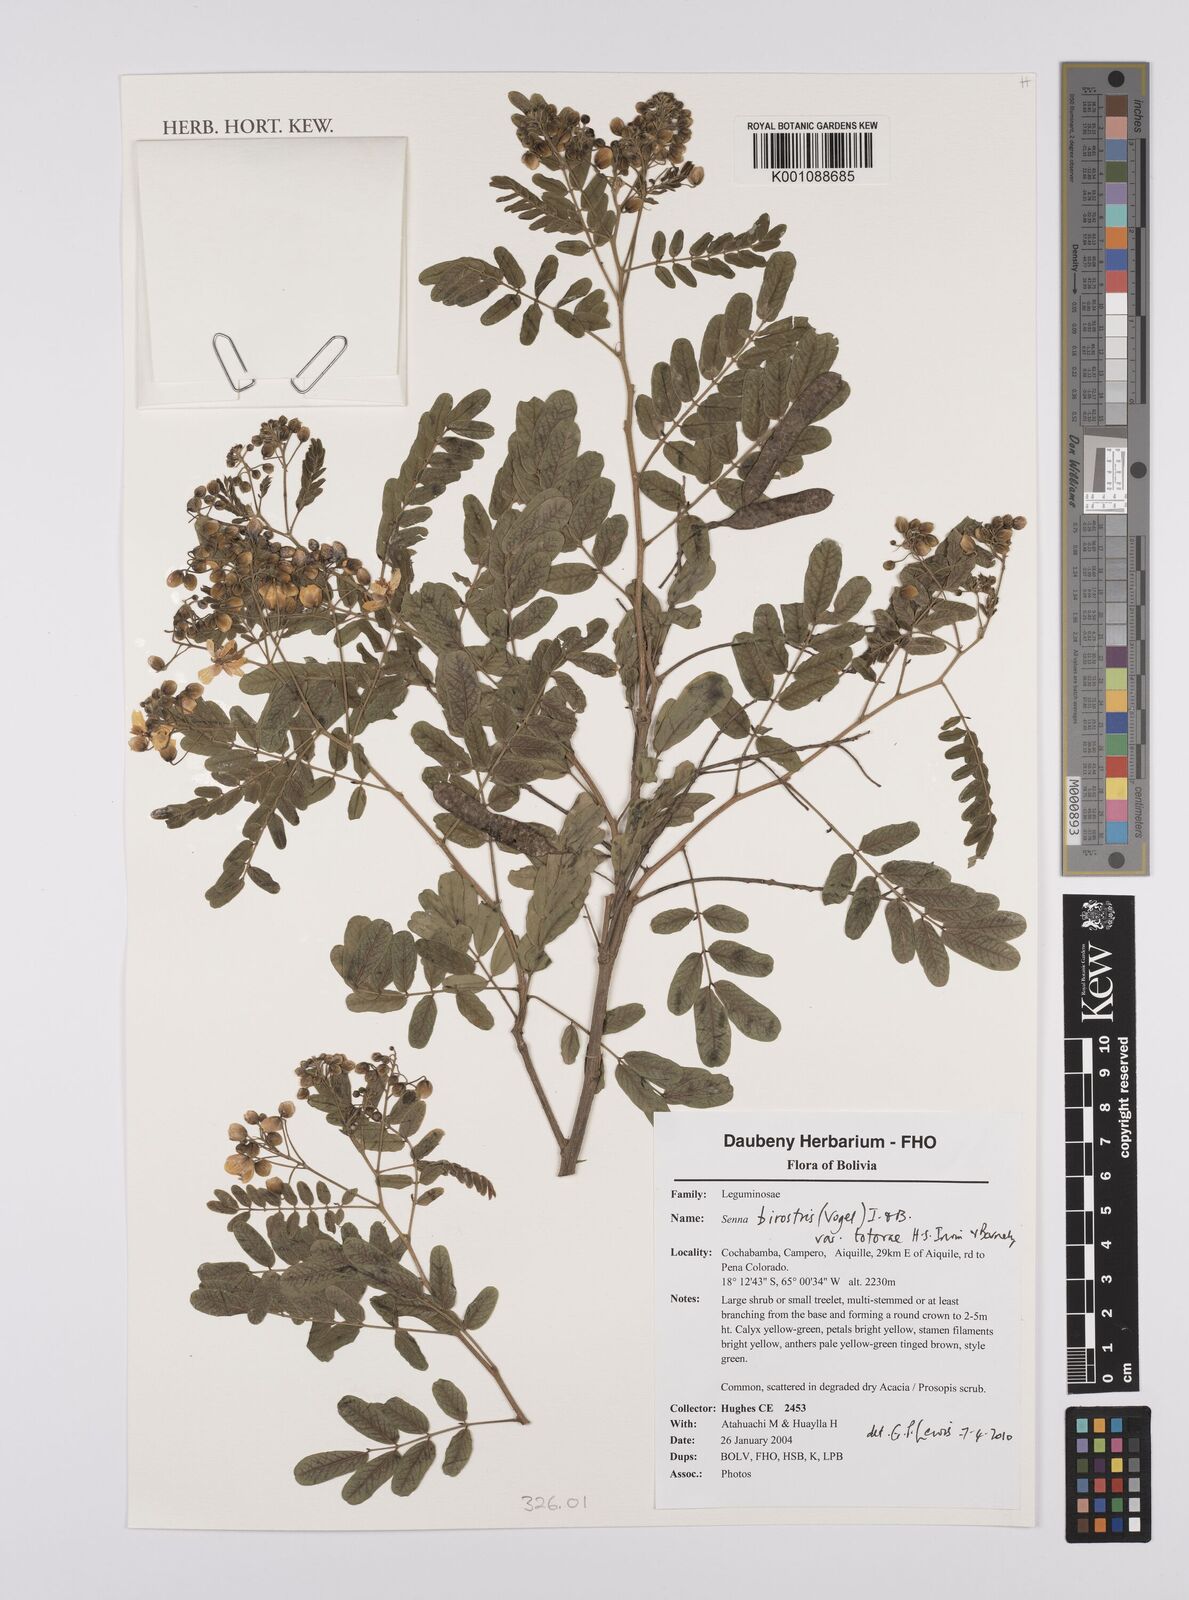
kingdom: Plantae
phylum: Tracheophyta
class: Magnoliopsida
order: Fabales
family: Fabaceae
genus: Senna
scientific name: Senna birostris
